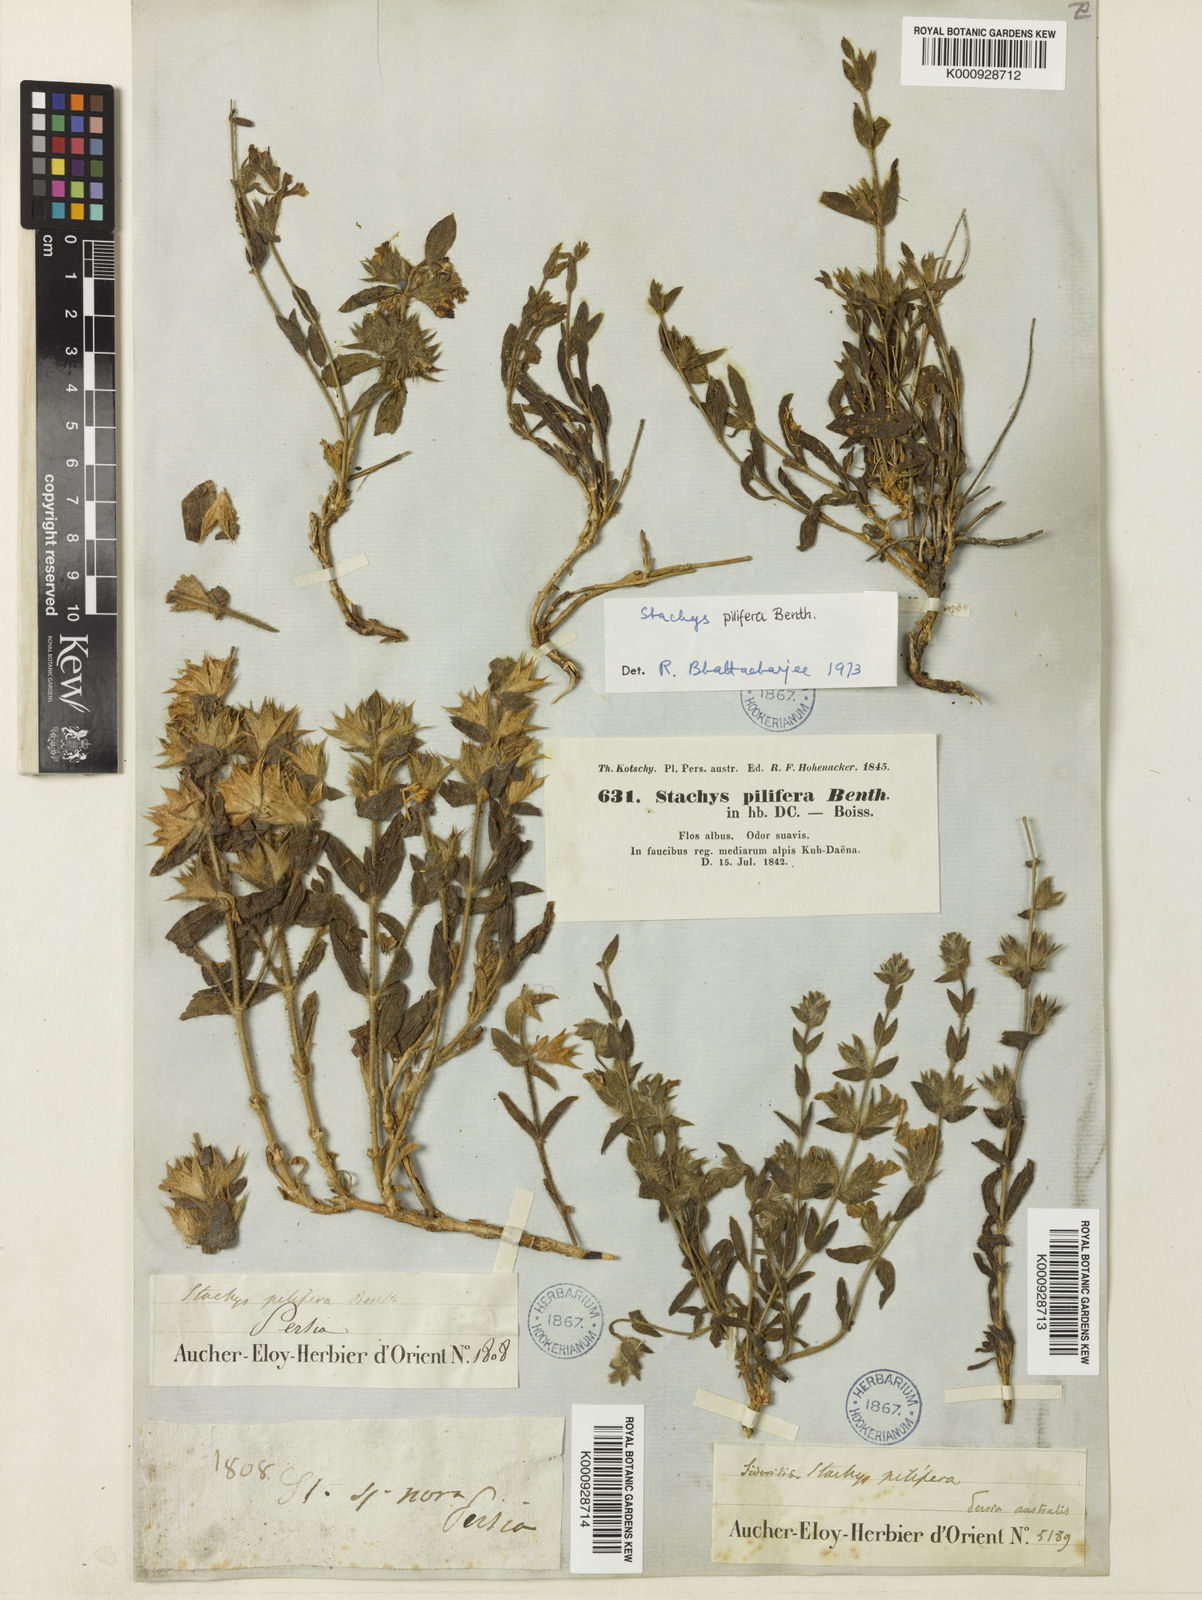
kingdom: Plantae
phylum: Tracheophyta
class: Magnoliopsida
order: Lamiales
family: Lamiaceae
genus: Stachys
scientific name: Stachys pilifera
